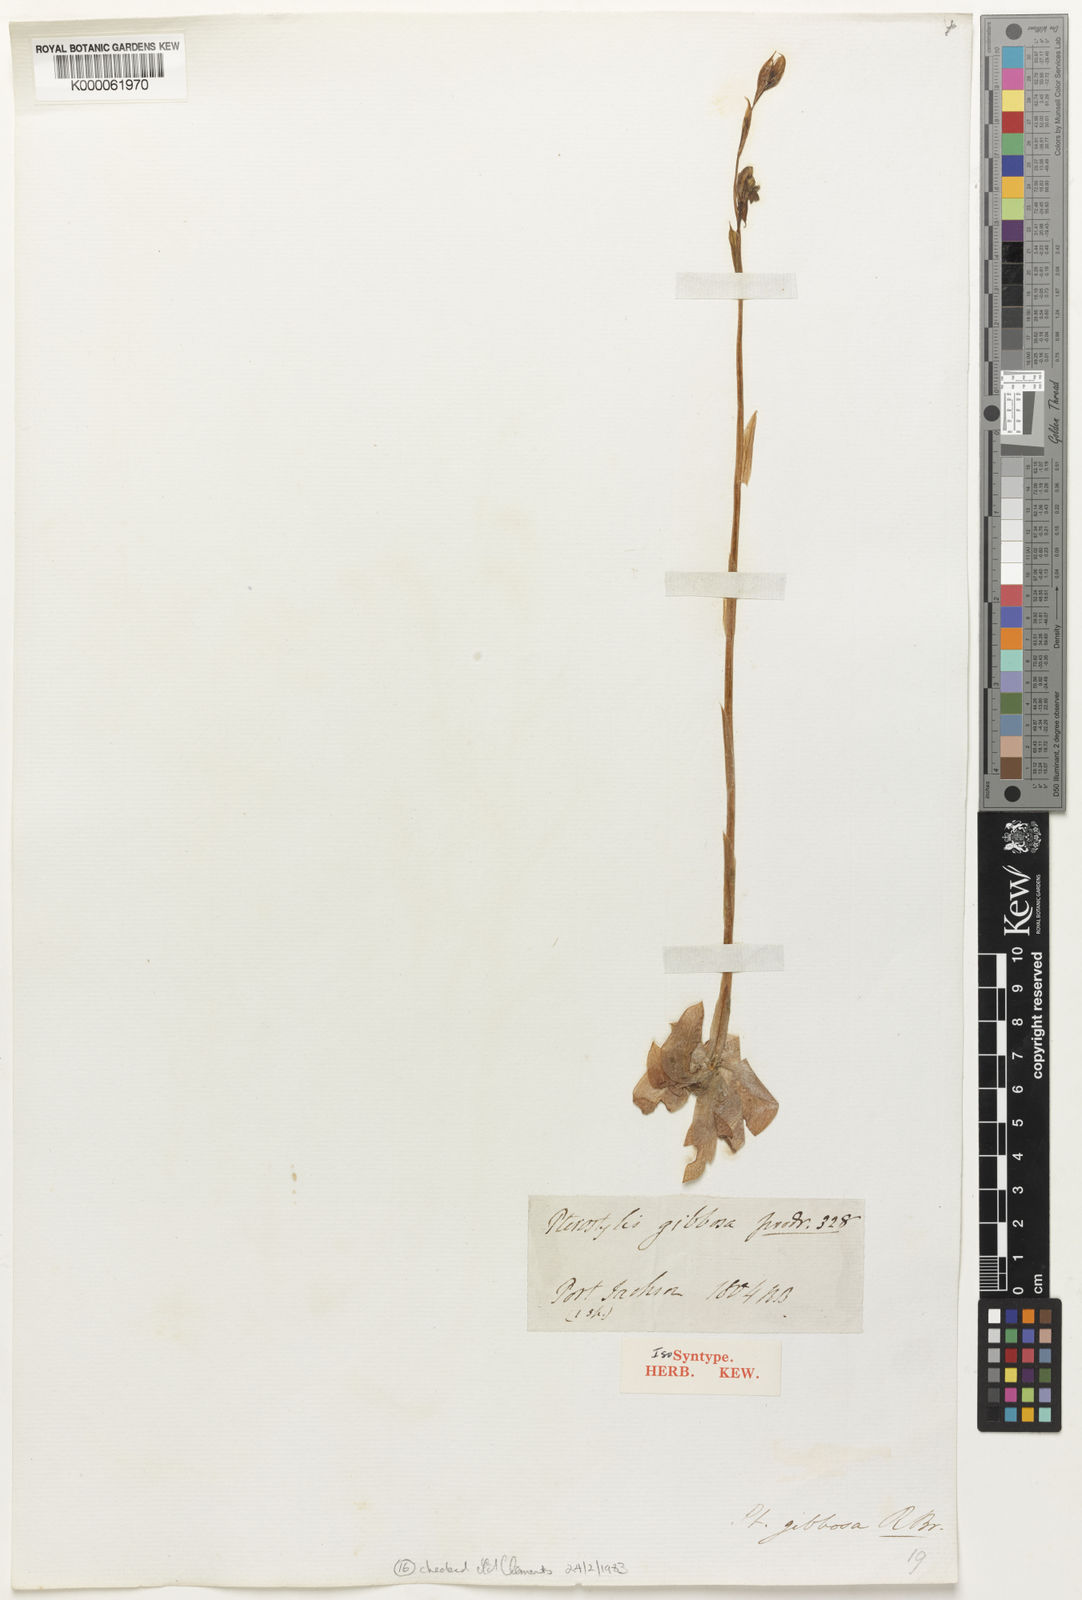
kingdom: Plantae
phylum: Tracheophyta
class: Liliopsida
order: Asparagales
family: Orchidaceae
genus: Pterostylis
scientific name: Pterostylis gibbosa
